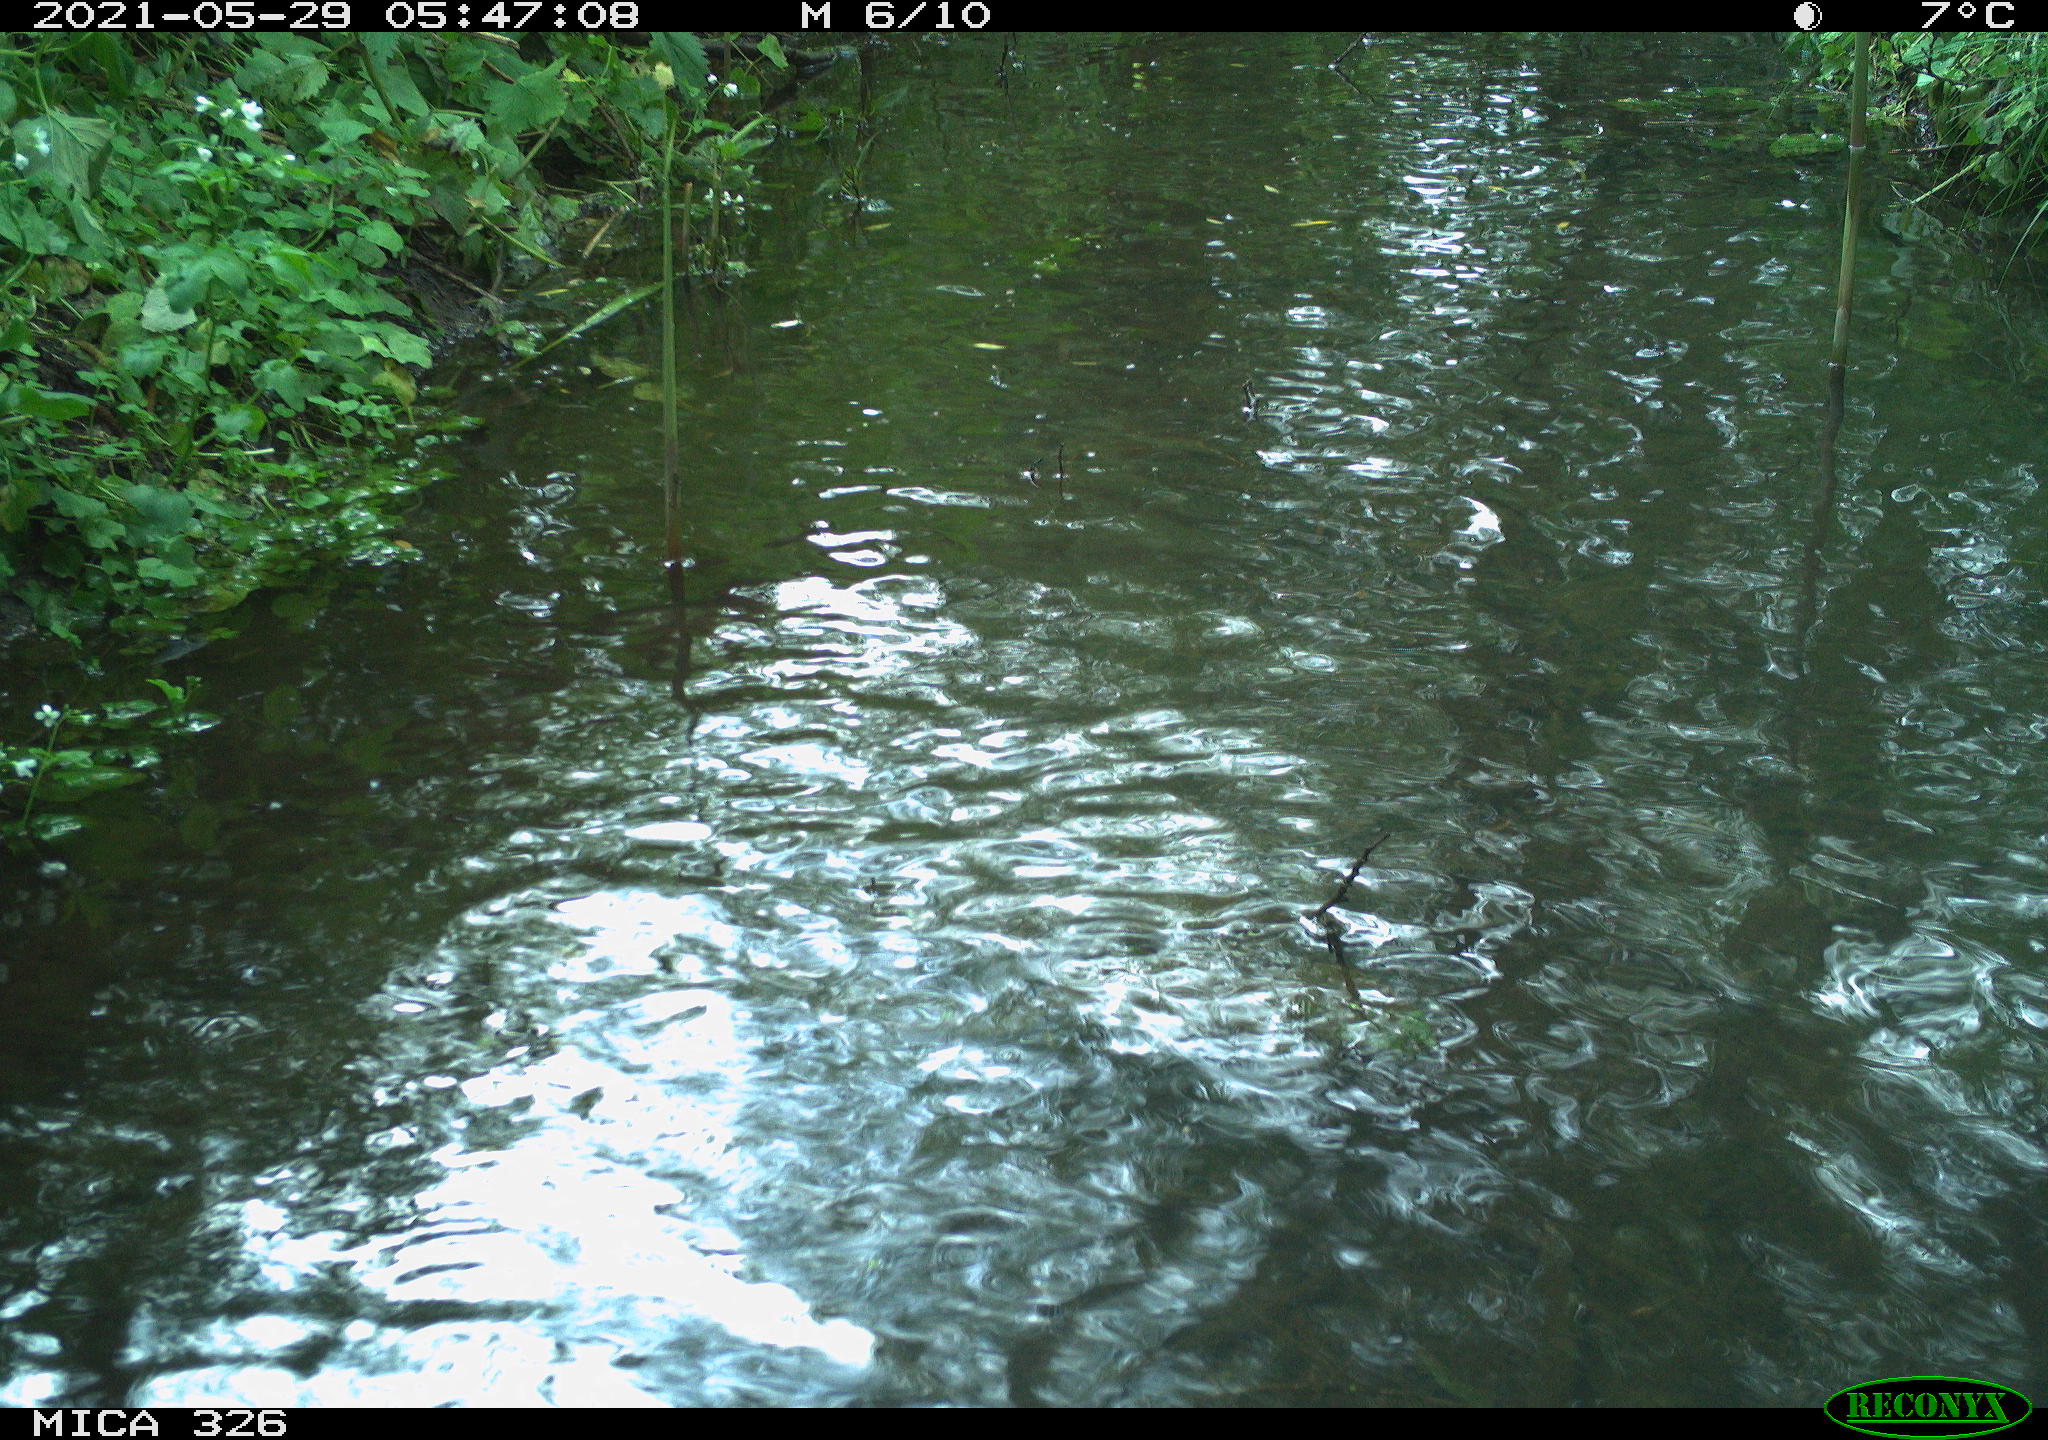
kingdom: Animalia
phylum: Chordata
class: Aves
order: Anseriformes
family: Anatidae
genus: Anas
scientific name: Anas platyrhynchos
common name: Mallard
